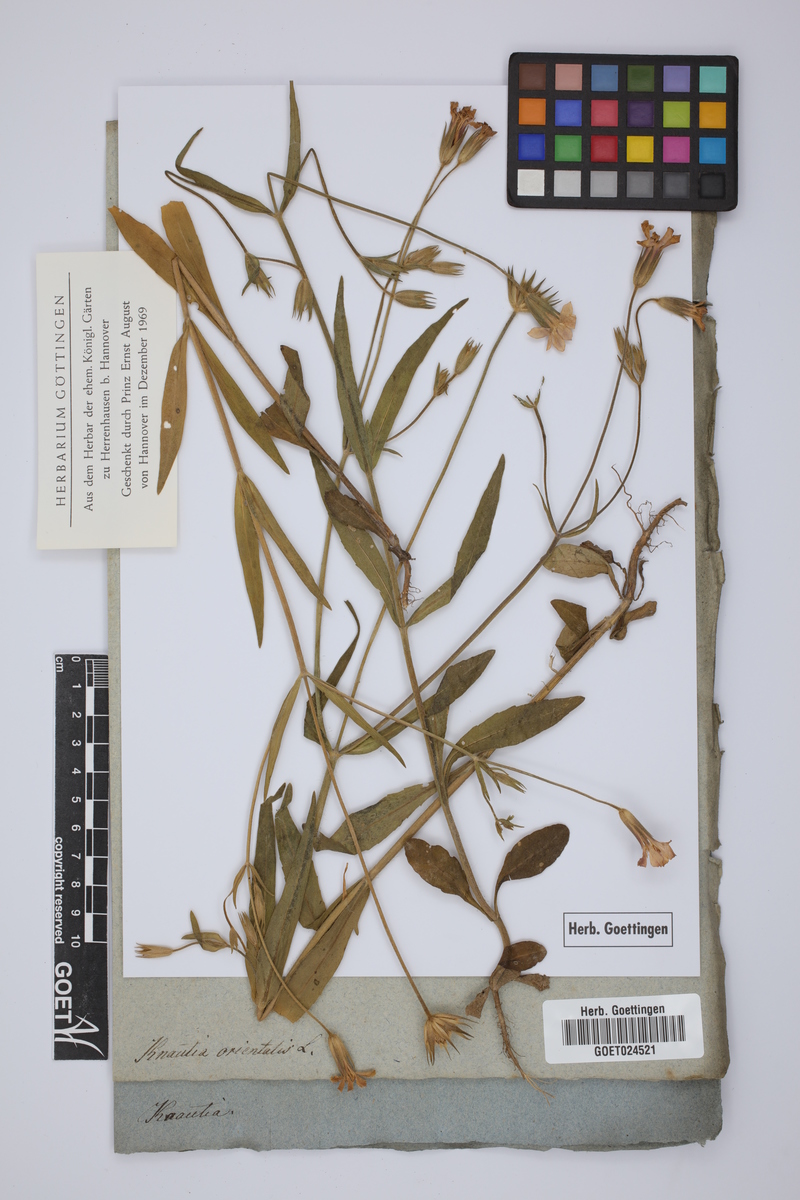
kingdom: Plantae
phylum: Tracheophyta
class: Magnoliopsida
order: Dipsacales
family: Caprifoliaceae
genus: Knautia
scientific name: Knautia orientalis
